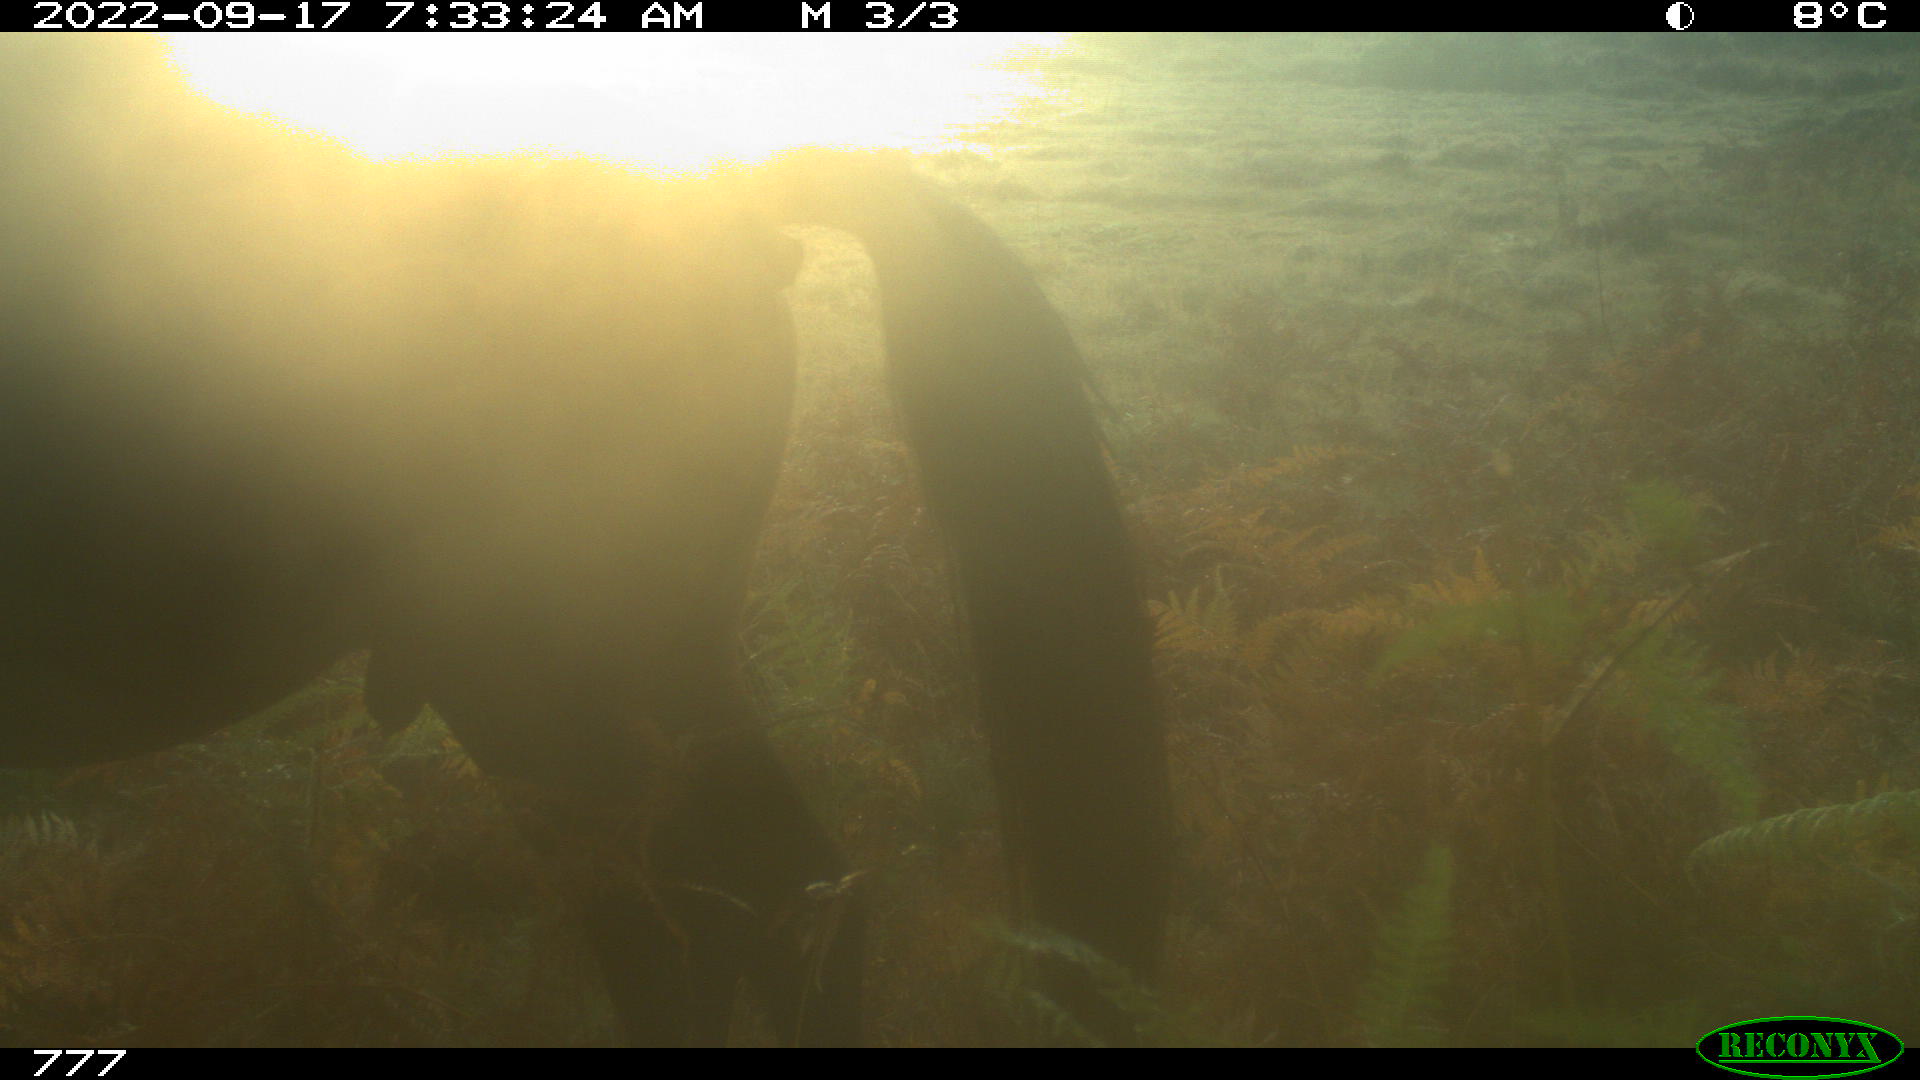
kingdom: Animalia
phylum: Chordata
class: Mammalia
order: Perissodactyla
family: Equidae
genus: Equus
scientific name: Equus caballus
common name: Horse
